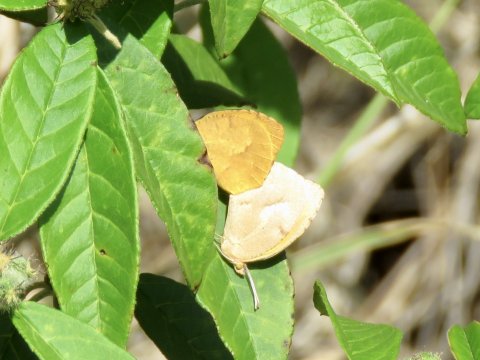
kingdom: Animalia
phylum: Arthropoda
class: Insecta
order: Lepidoptera
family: Pieridae
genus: Abaeis
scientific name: Abaeis nicippe
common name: Sleepy Orange
